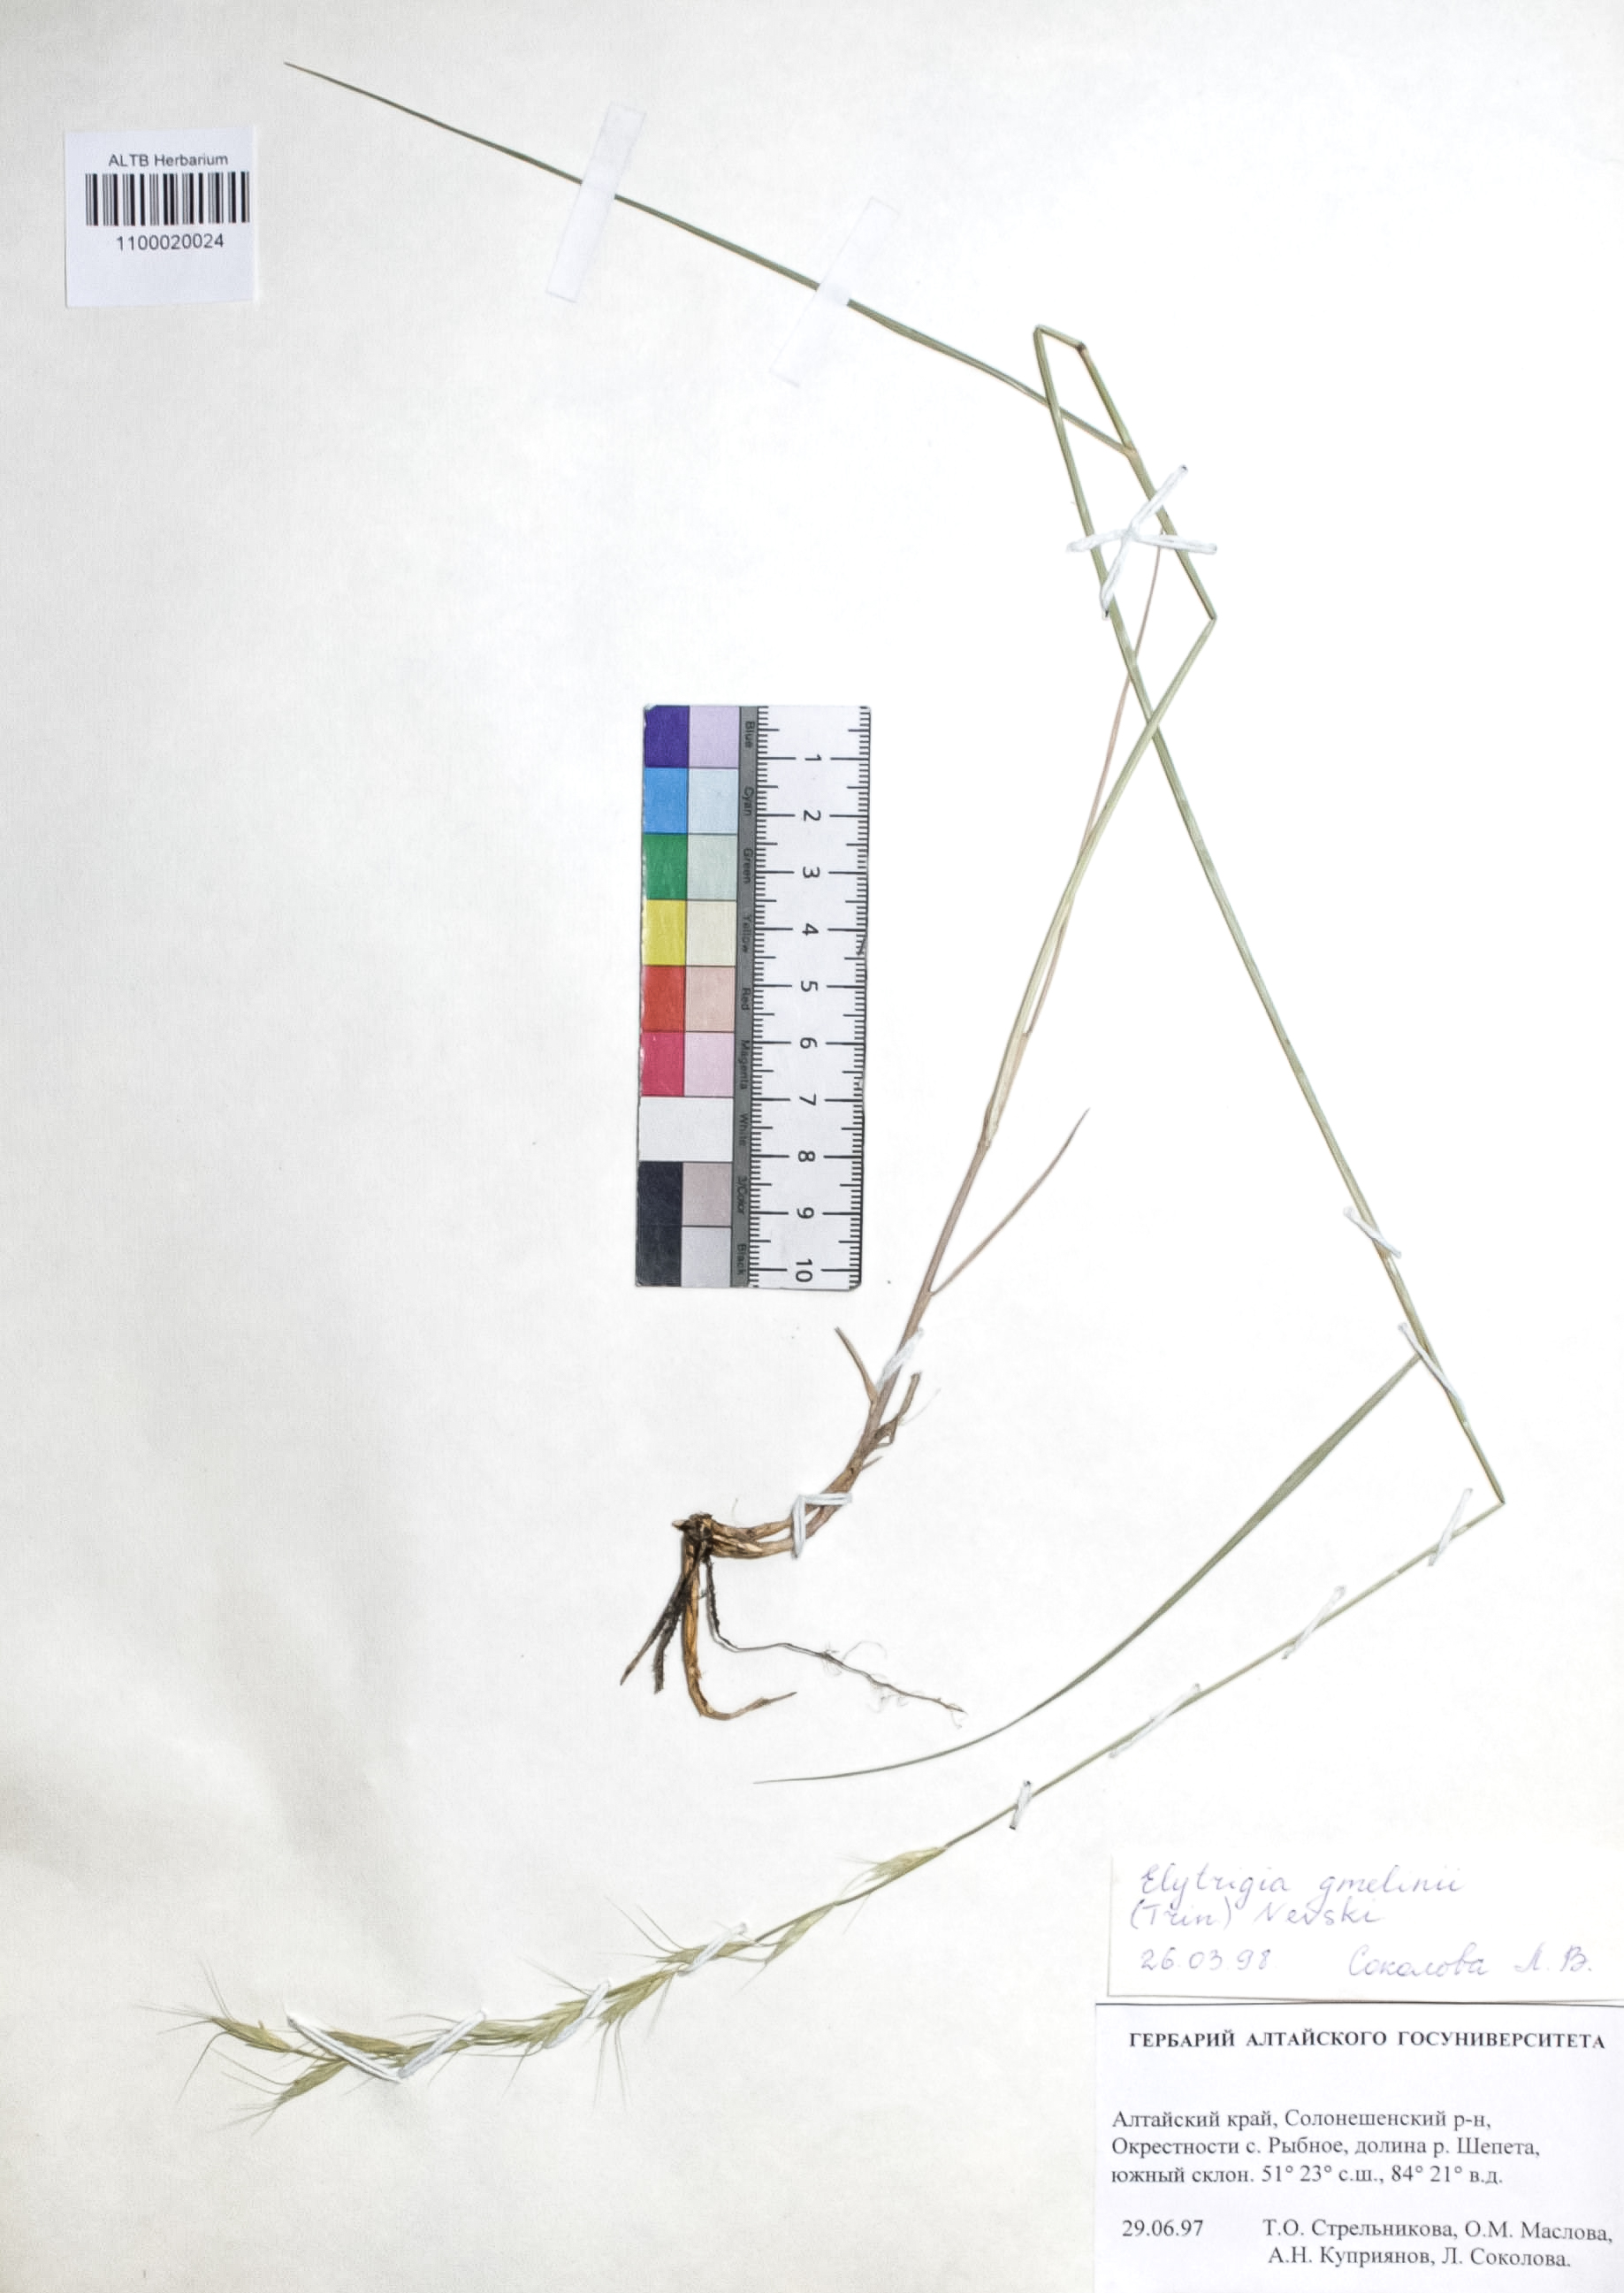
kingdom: Plantae
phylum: Tracheophyta
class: Liliopsida
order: Poales
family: Poaceae
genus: Pseudoroegneria
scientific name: Pseudoroegneria reflexiaristata
